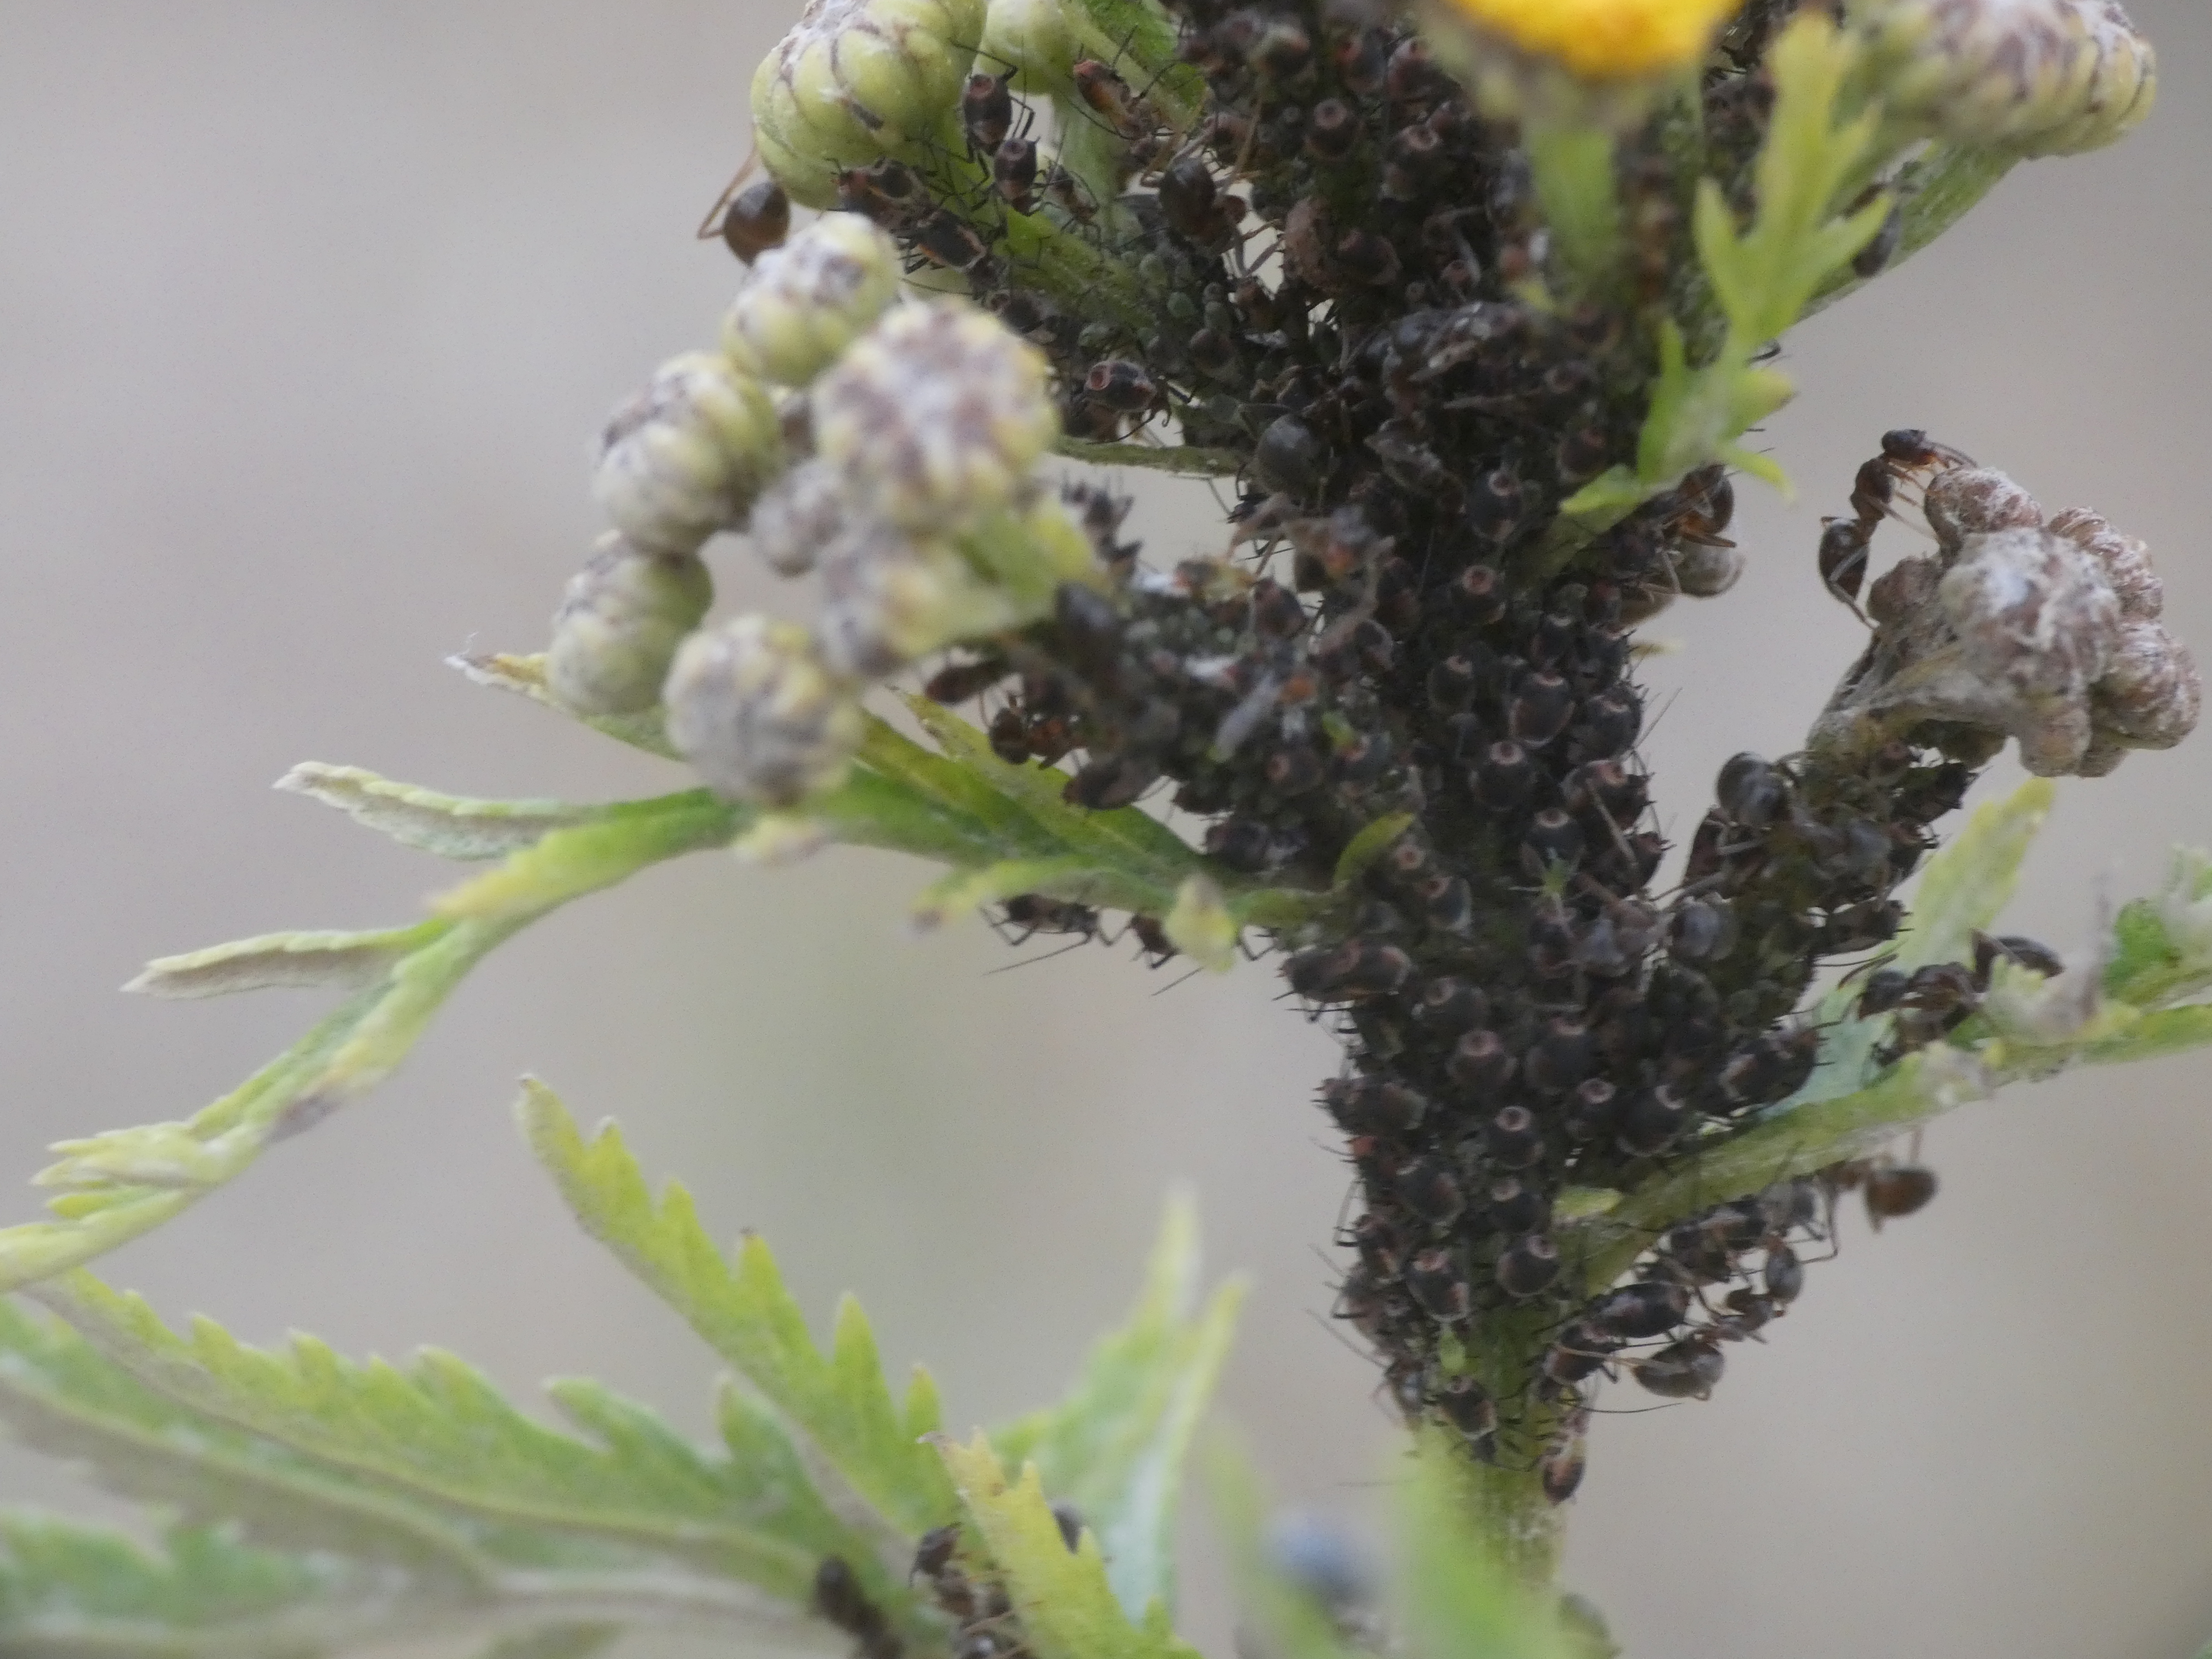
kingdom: Animalia
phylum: Arthropoda
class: Insecta
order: Hemiptera
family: Aphididae
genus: Metopeurum
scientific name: Metopeurum fuscoviride
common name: Mørk rejnfanbladlus
